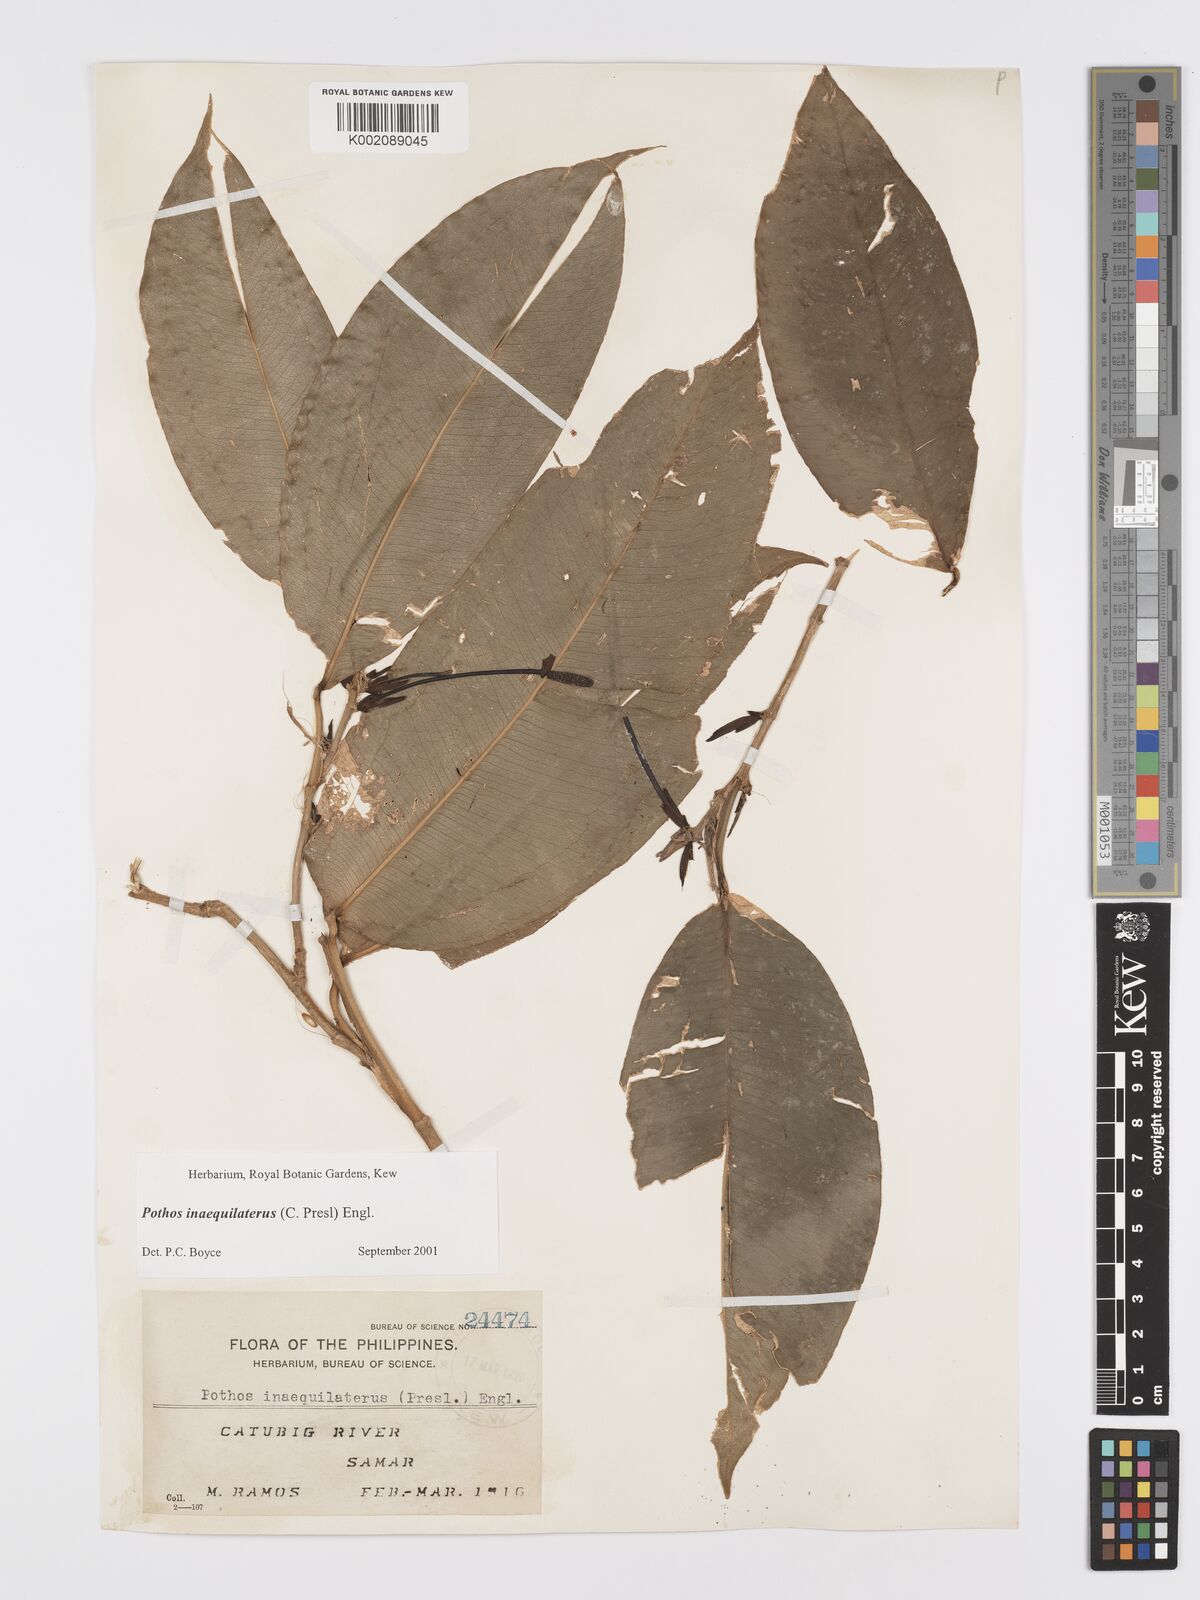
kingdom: Plantae
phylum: Tracheophyta
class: Liliopsida
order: Alismatales
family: Araceae
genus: Pothos
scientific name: Pothos inaequilaterus
